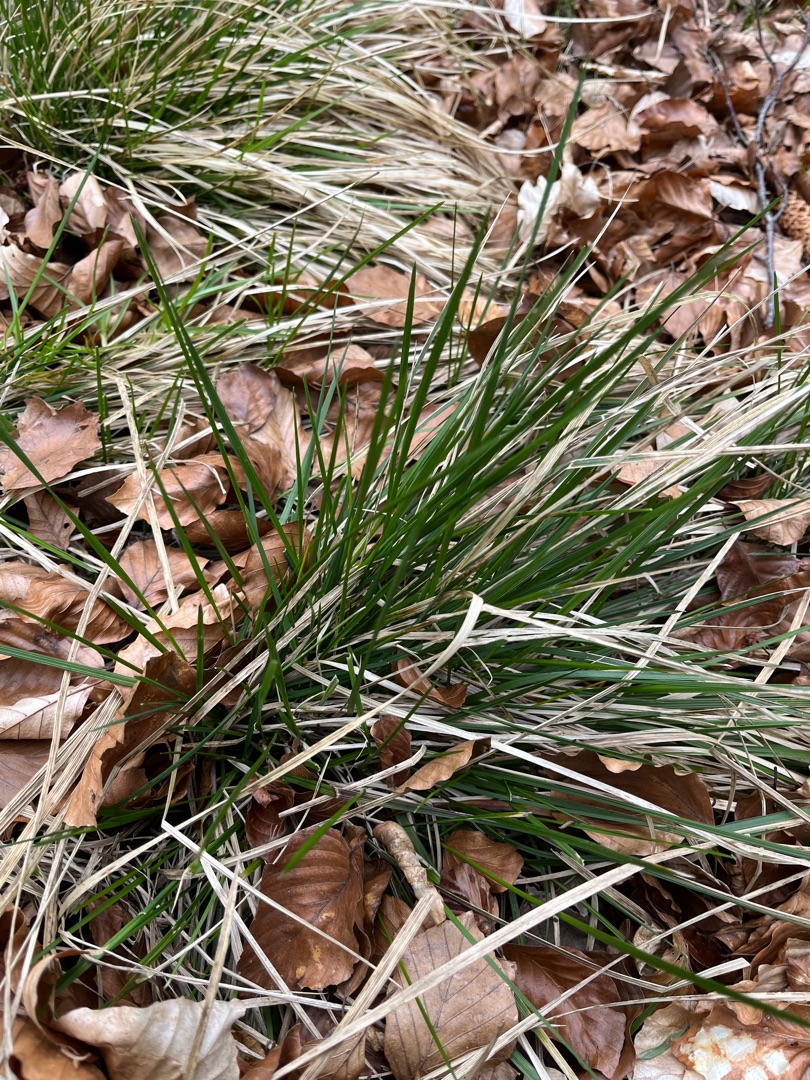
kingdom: Plantae
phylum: Tracheophyta
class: Liliopsida
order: Poales
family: Poaceae
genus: Deschampsia
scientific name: Deschampsia cespitosa
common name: Mose-bunke
